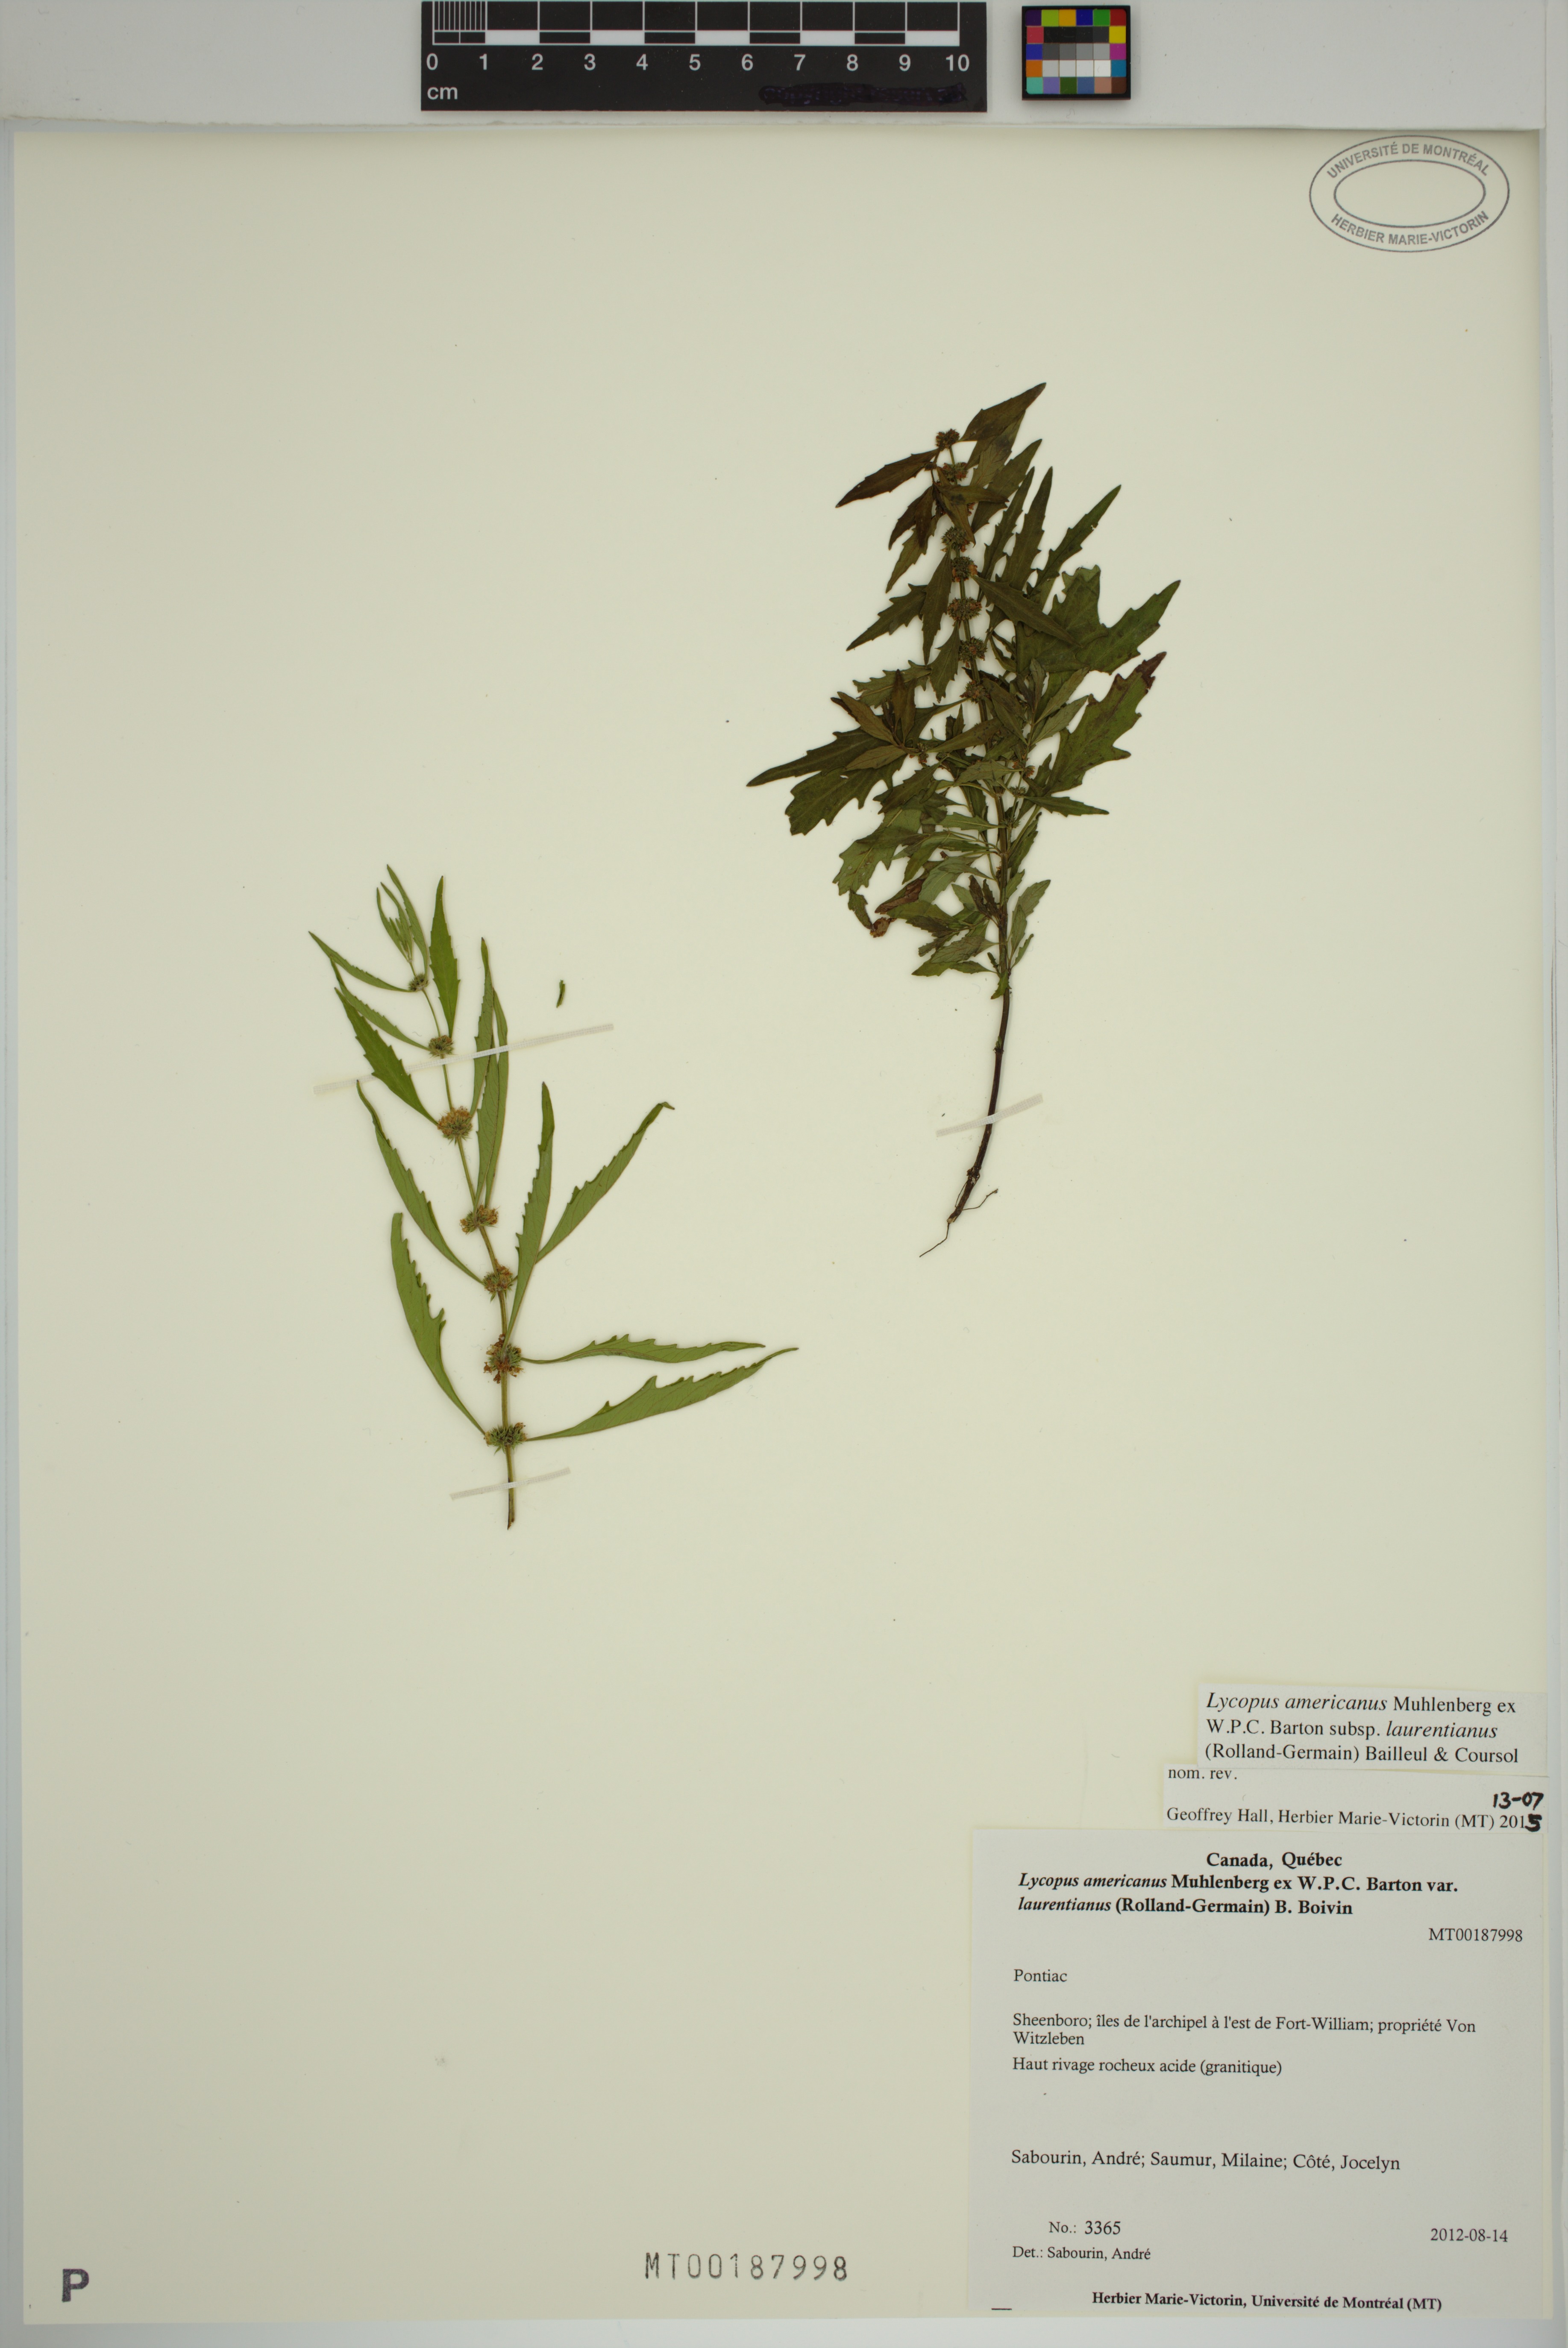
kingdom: Plantae
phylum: Tracheophyta
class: Magnoliopsida
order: Lamiales
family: Lamiaceae
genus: Lycopus
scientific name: Lycopus americanus
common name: American bugleweed
